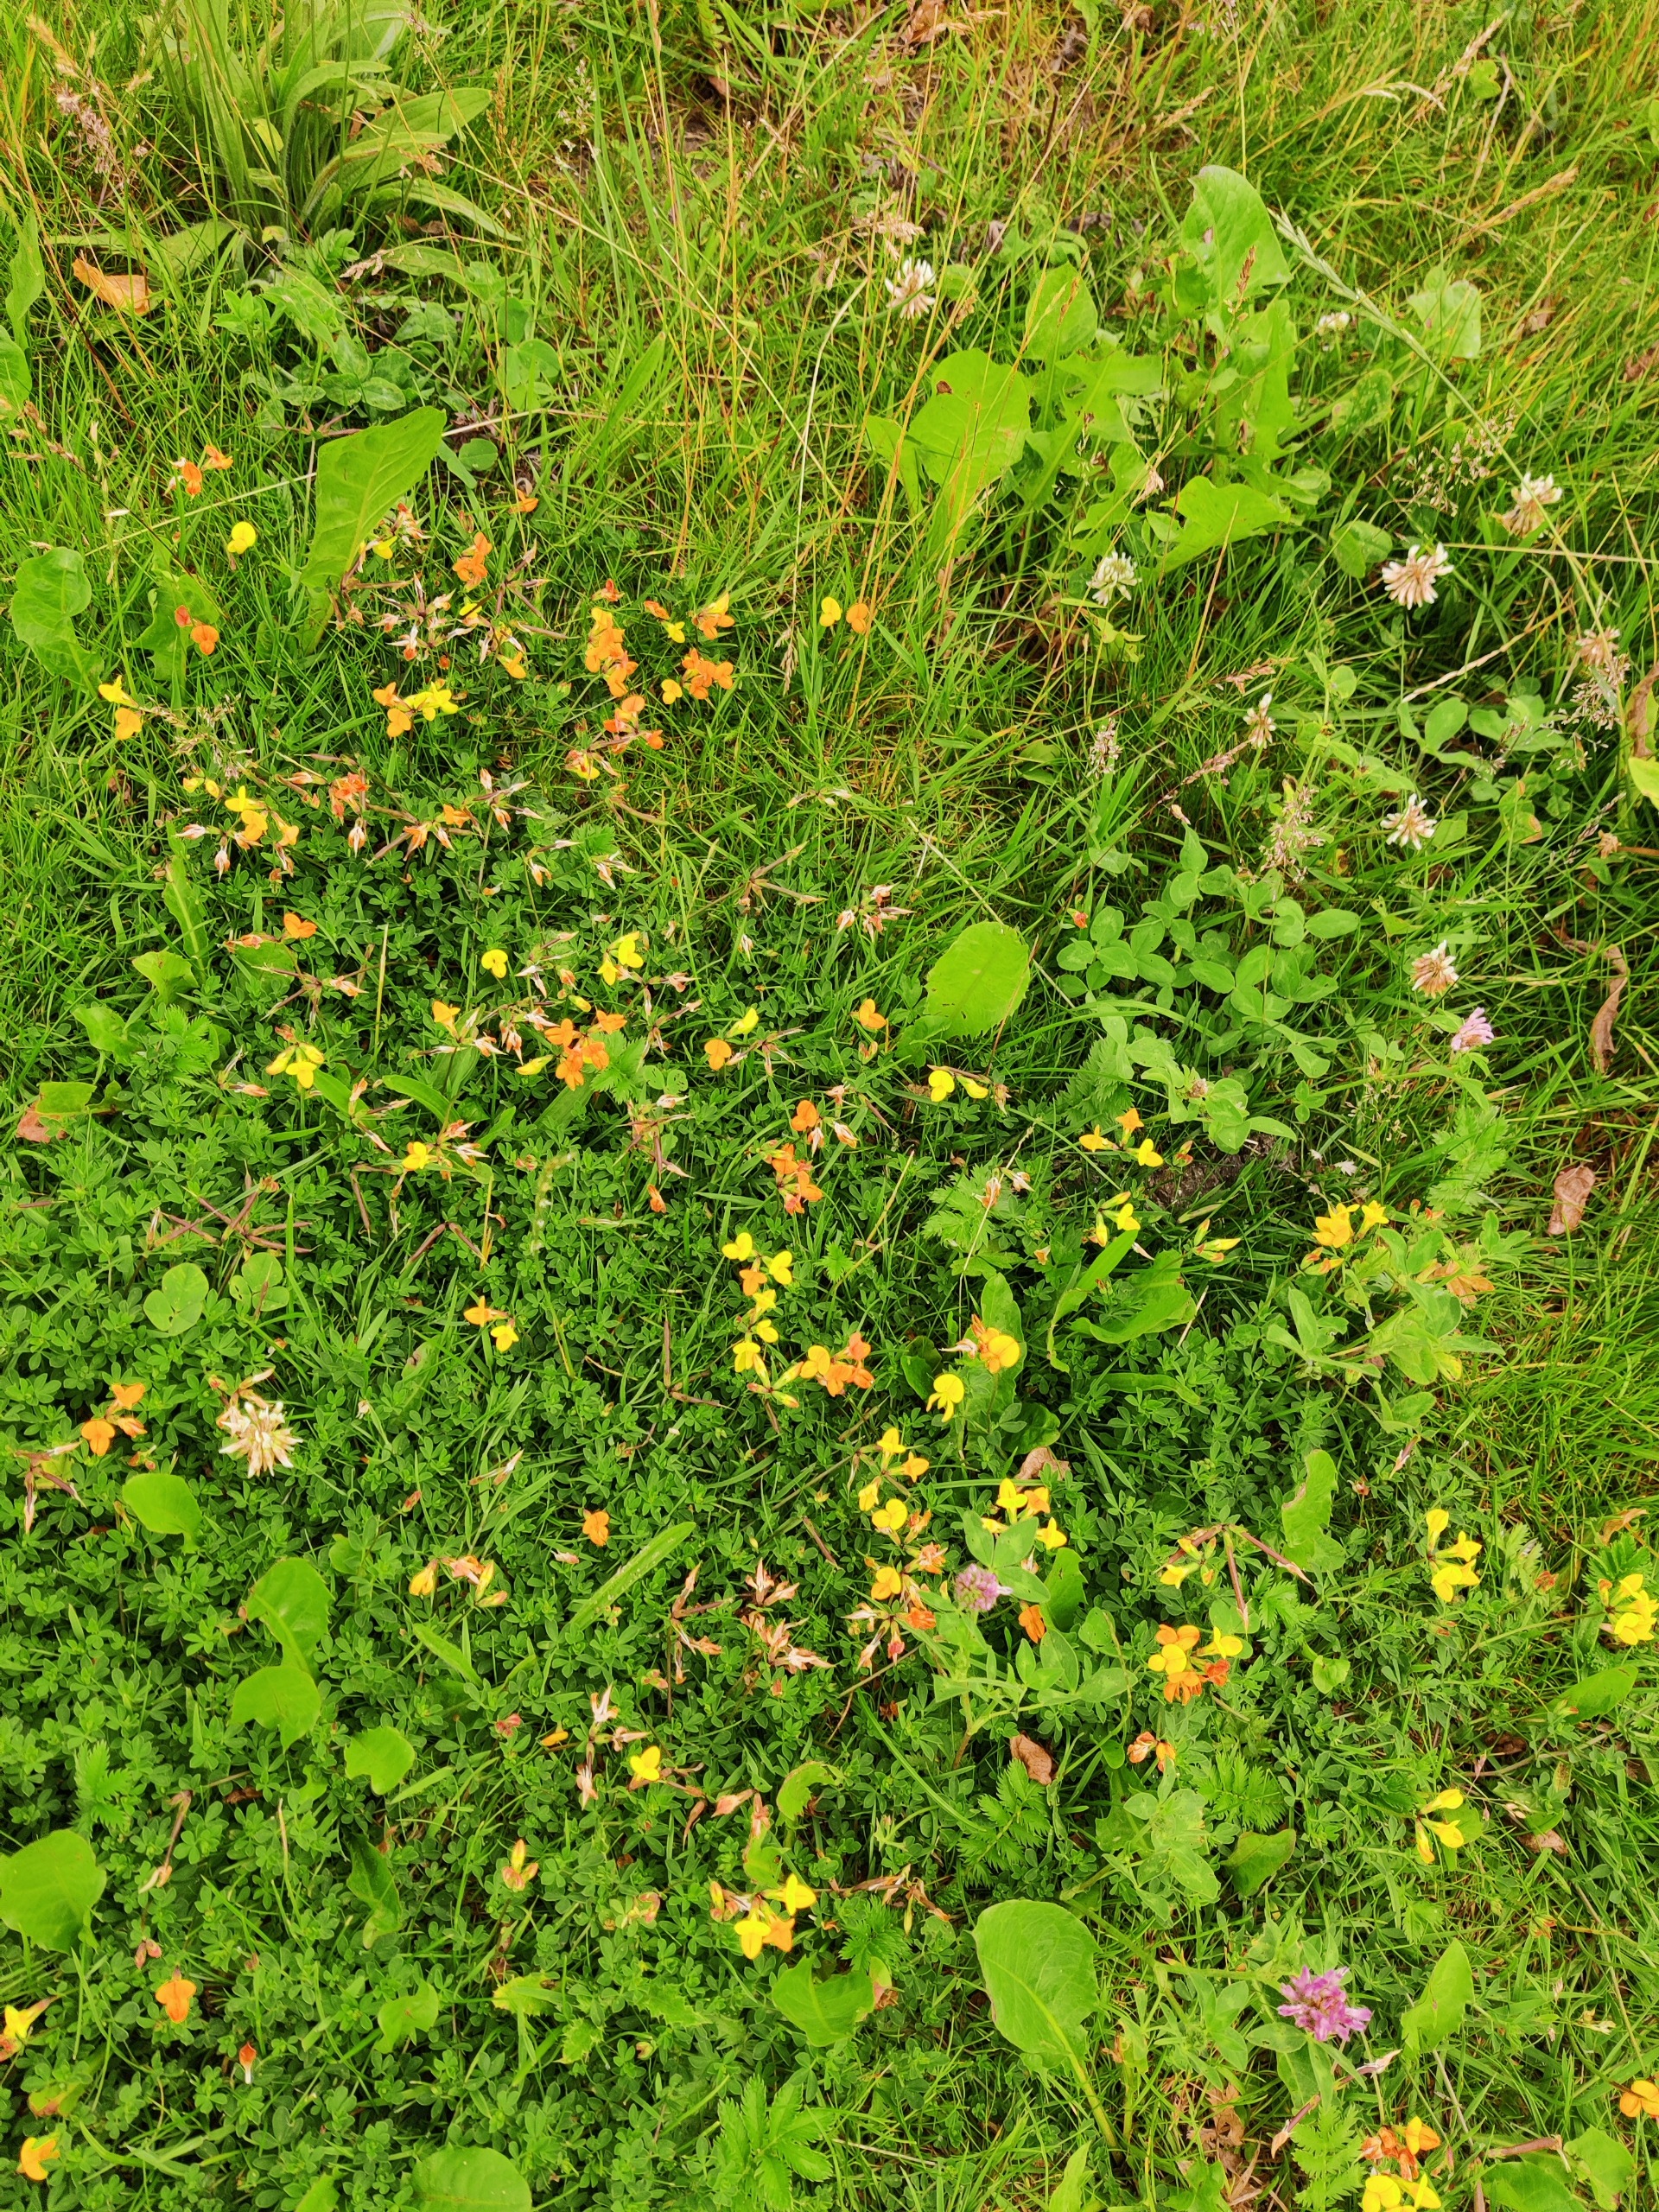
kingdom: Plantae
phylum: Tracheophyta
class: Magnoliopsida
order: Fabales
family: Fabaceae
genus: Lotus
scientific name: Lotus corniculatus
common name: Almindelig kællingetand
